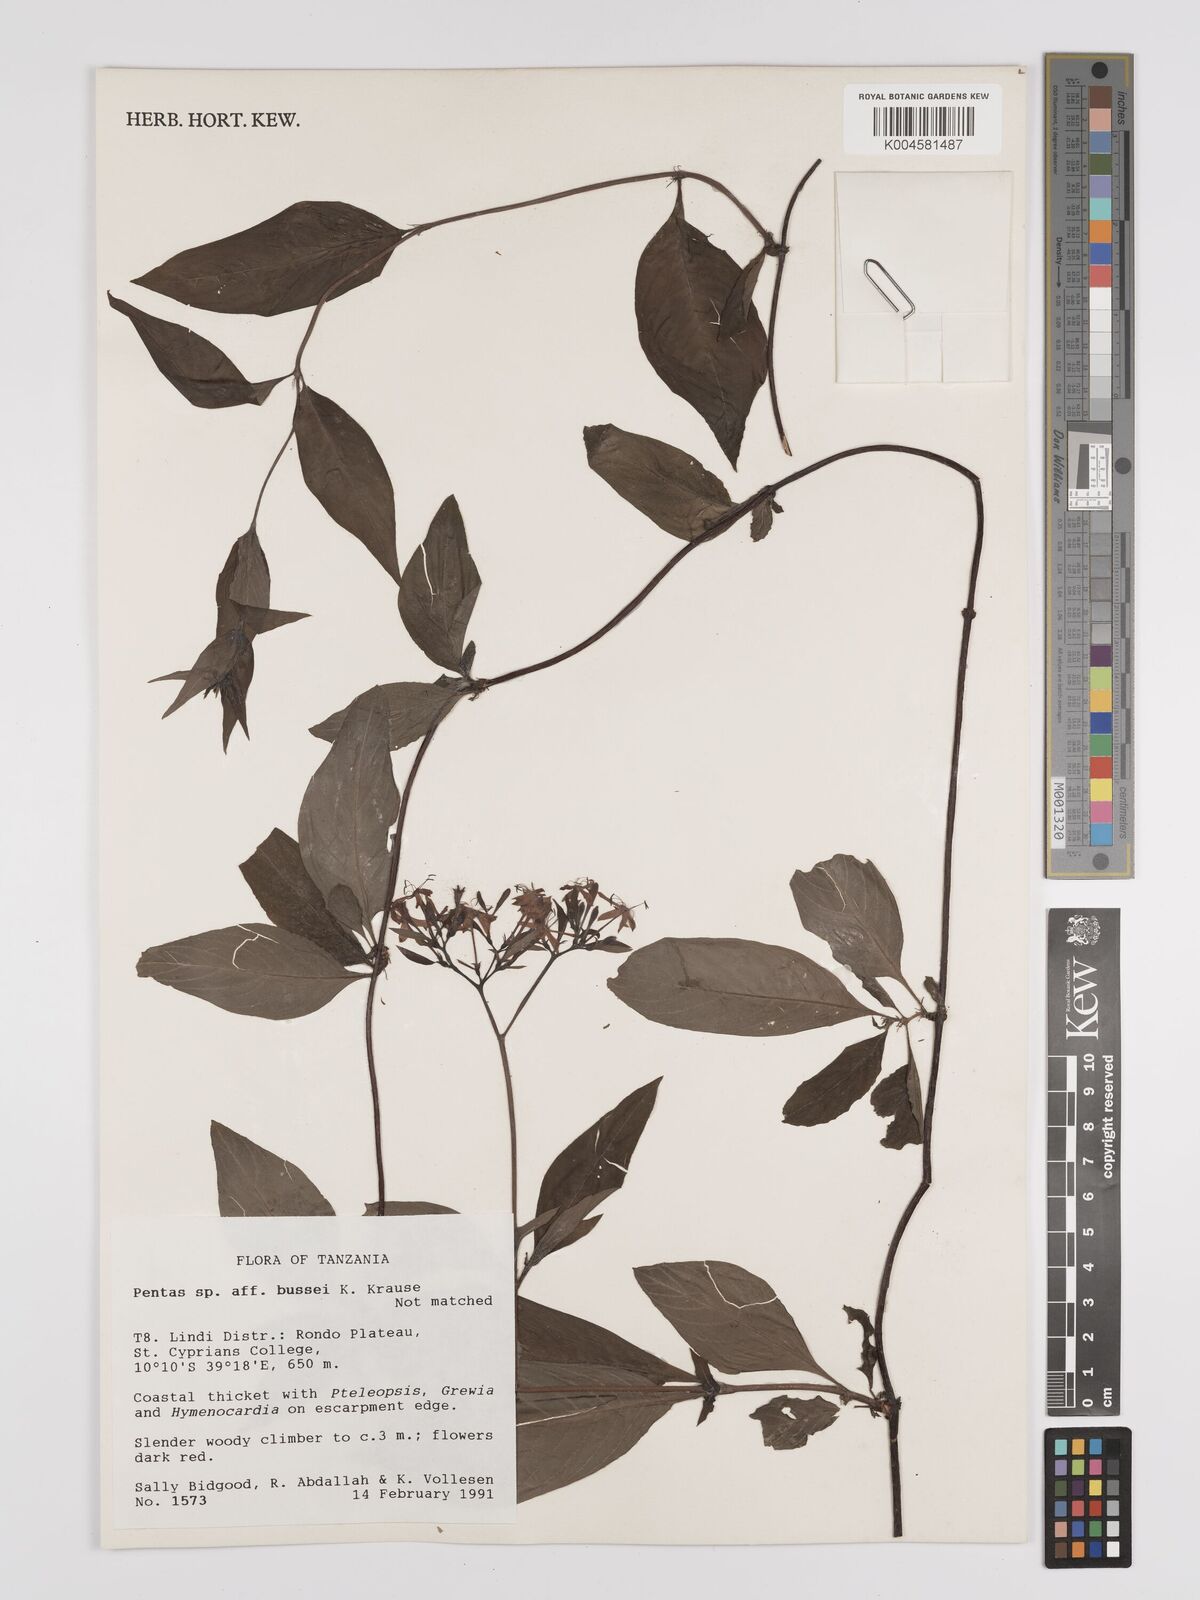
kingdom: Plantae
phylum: Tracheophyta
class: Magnoliopsida
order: Gentianales
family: Rubiaceae
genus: Rhodopentas
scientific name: Rhodopentas bussei
